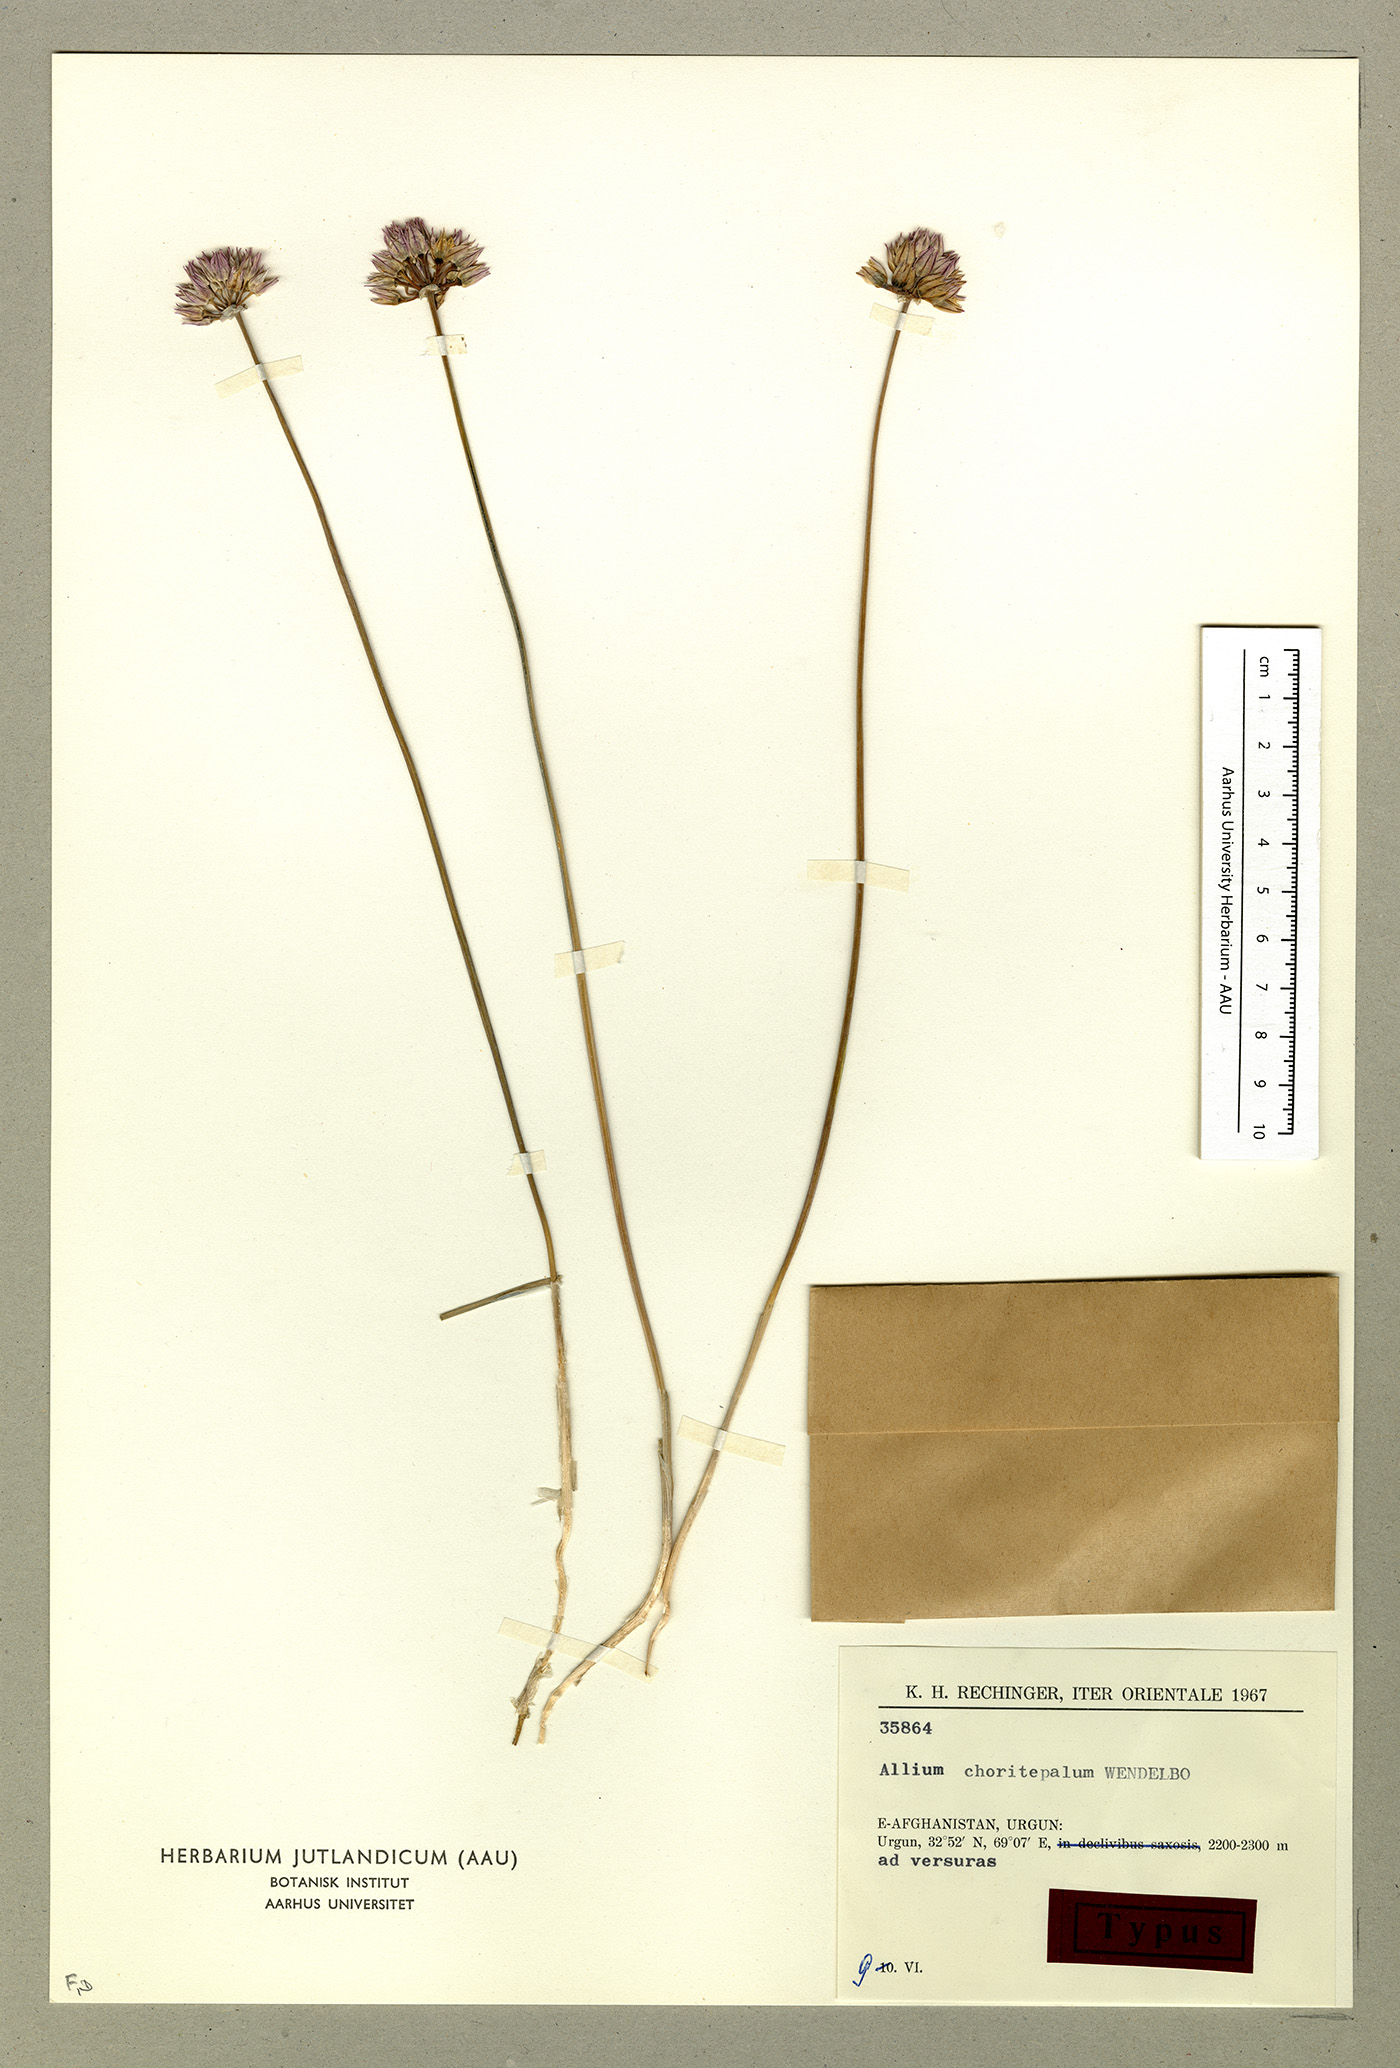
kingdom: Plantae
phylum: Tracheophyta
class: Liliopsida
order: Asparagales
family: Amaryllidaceae
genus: Allium
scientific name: Allium choriotepalum
